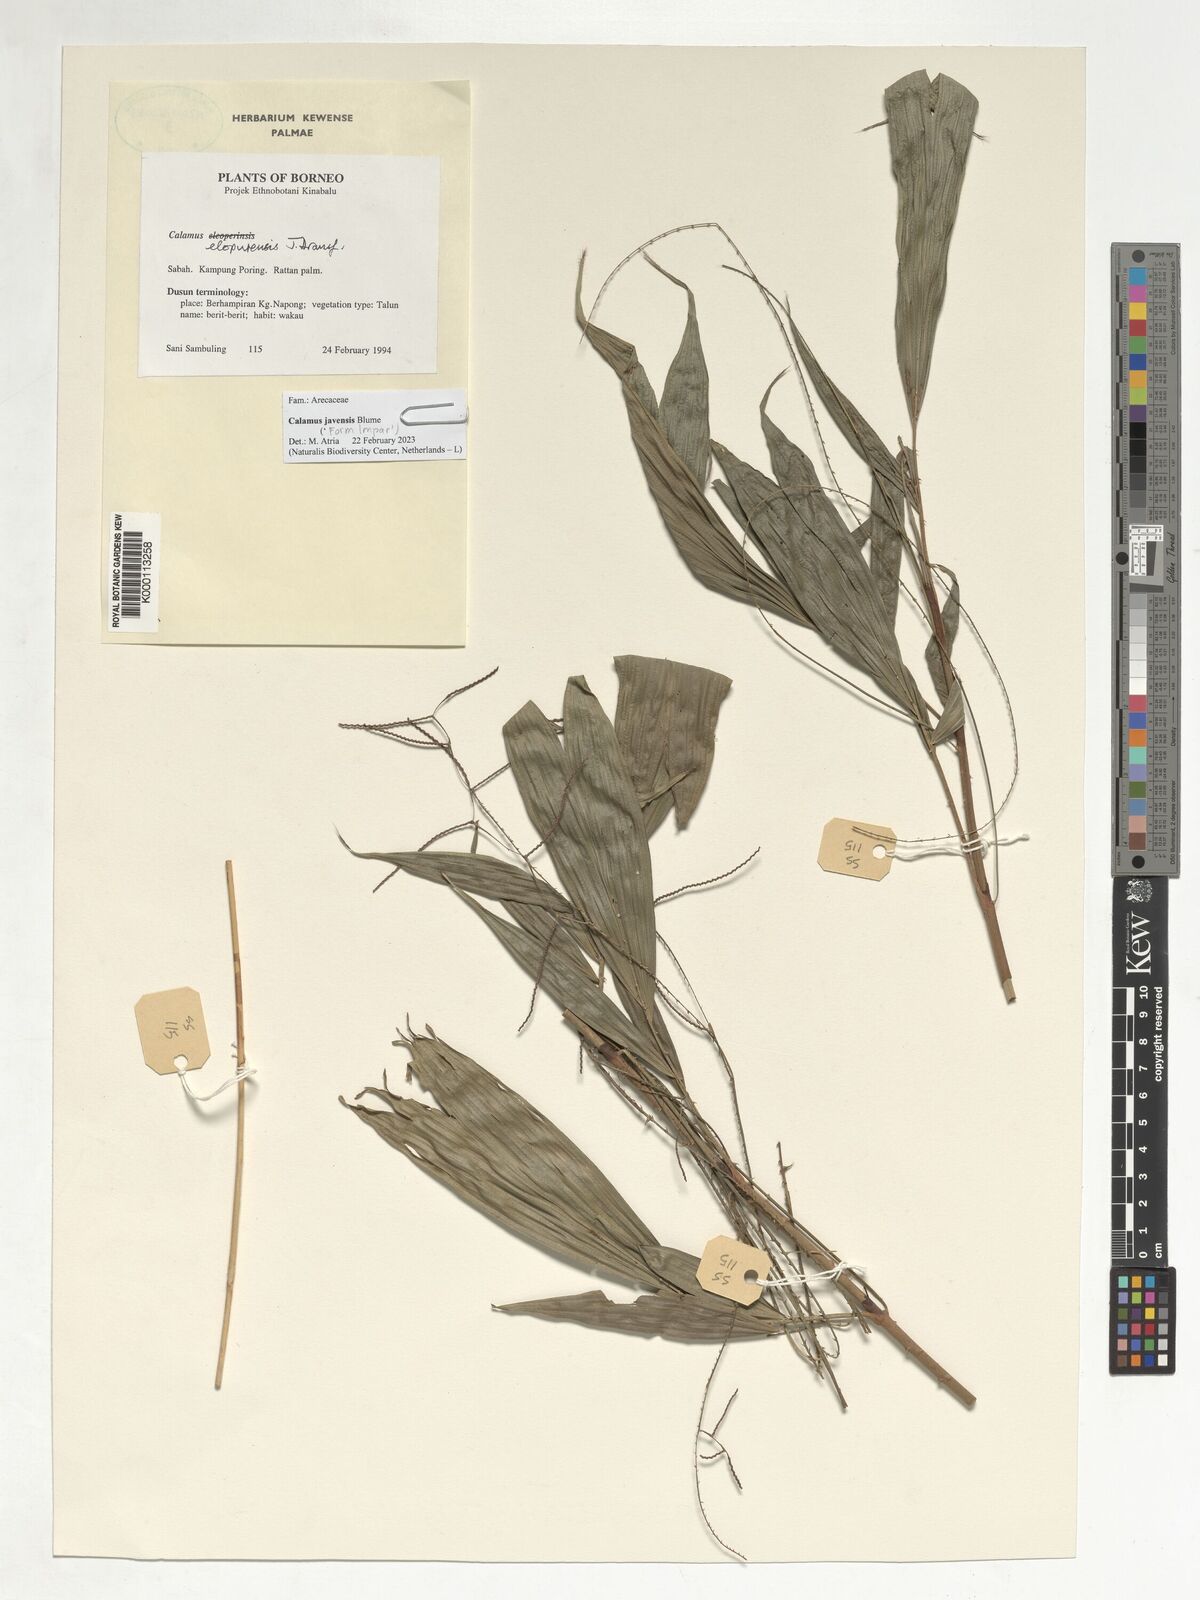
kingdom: Plantae
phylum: Tracheophyta
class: Liliopsida
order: Arecales
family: Arecaceae
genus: Calamus
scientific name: Calamus javensis
